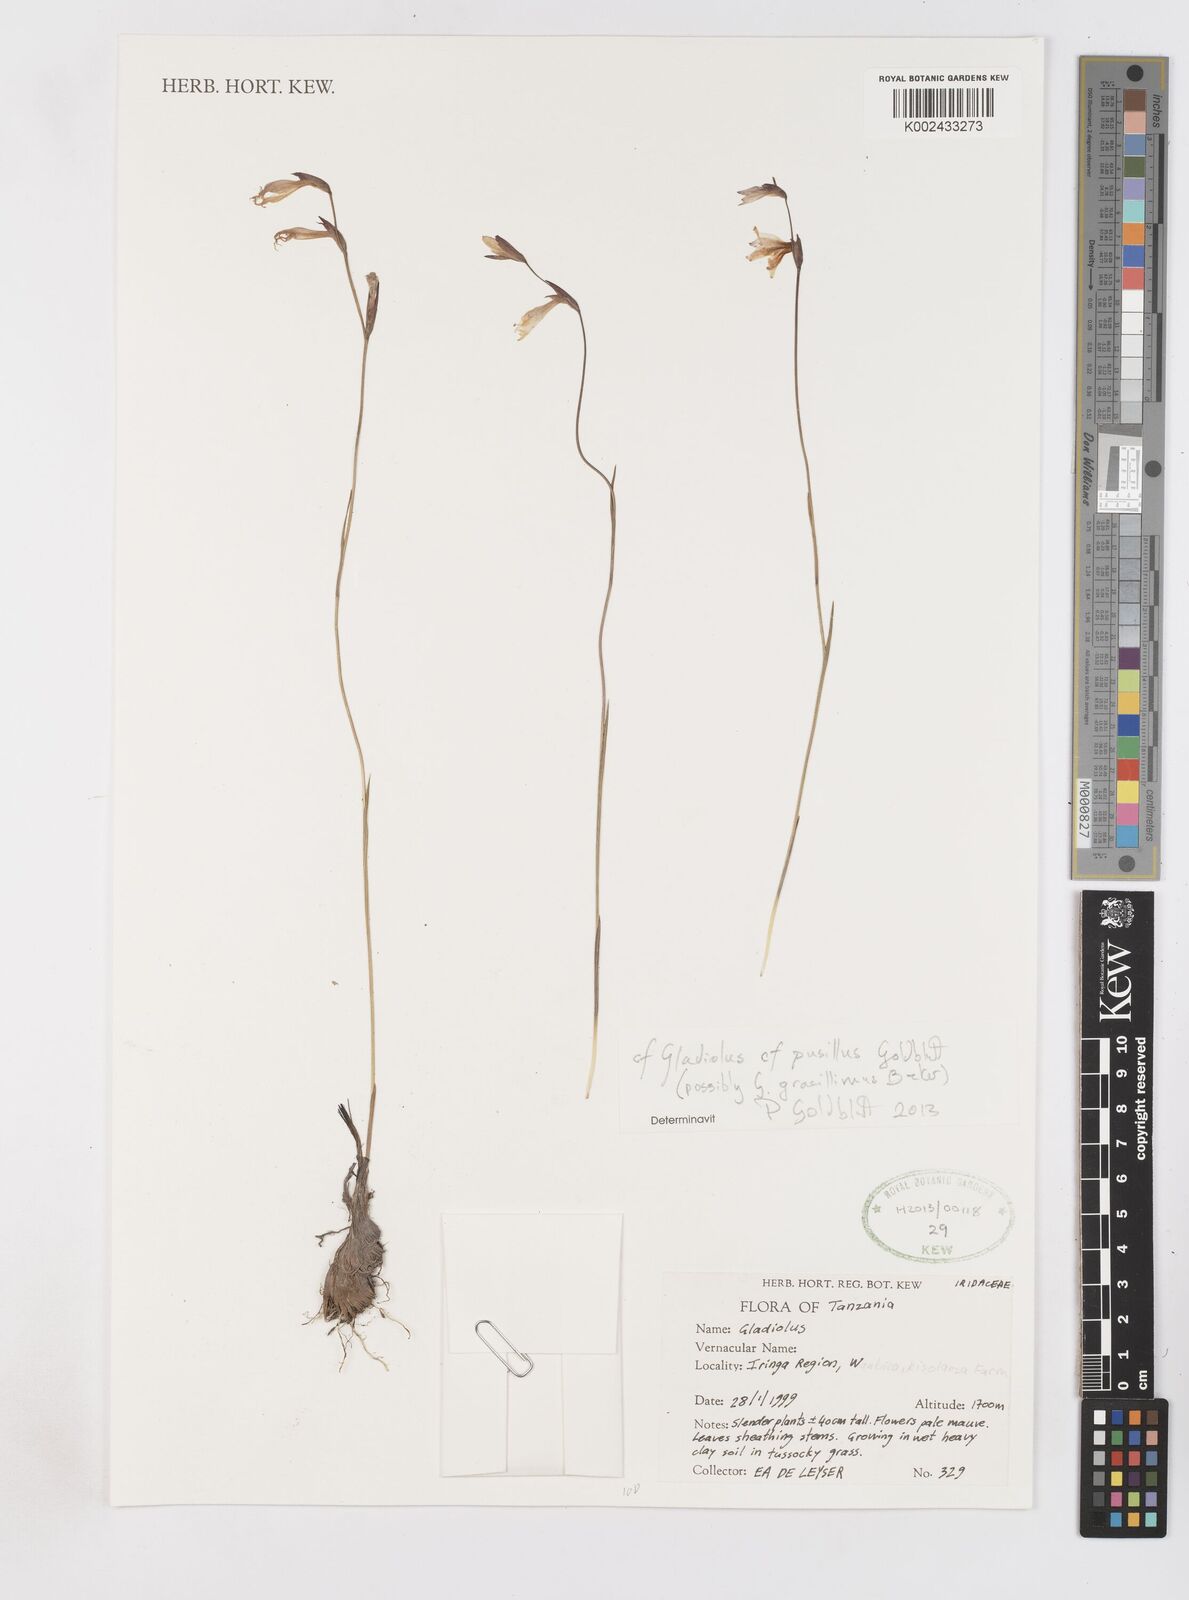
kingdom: Plantae
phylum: Tracheophyta
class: Liliopsida
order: Asparagales
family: Iridaceae
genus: Gladiolus
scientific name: Gladiolus gracillimus
